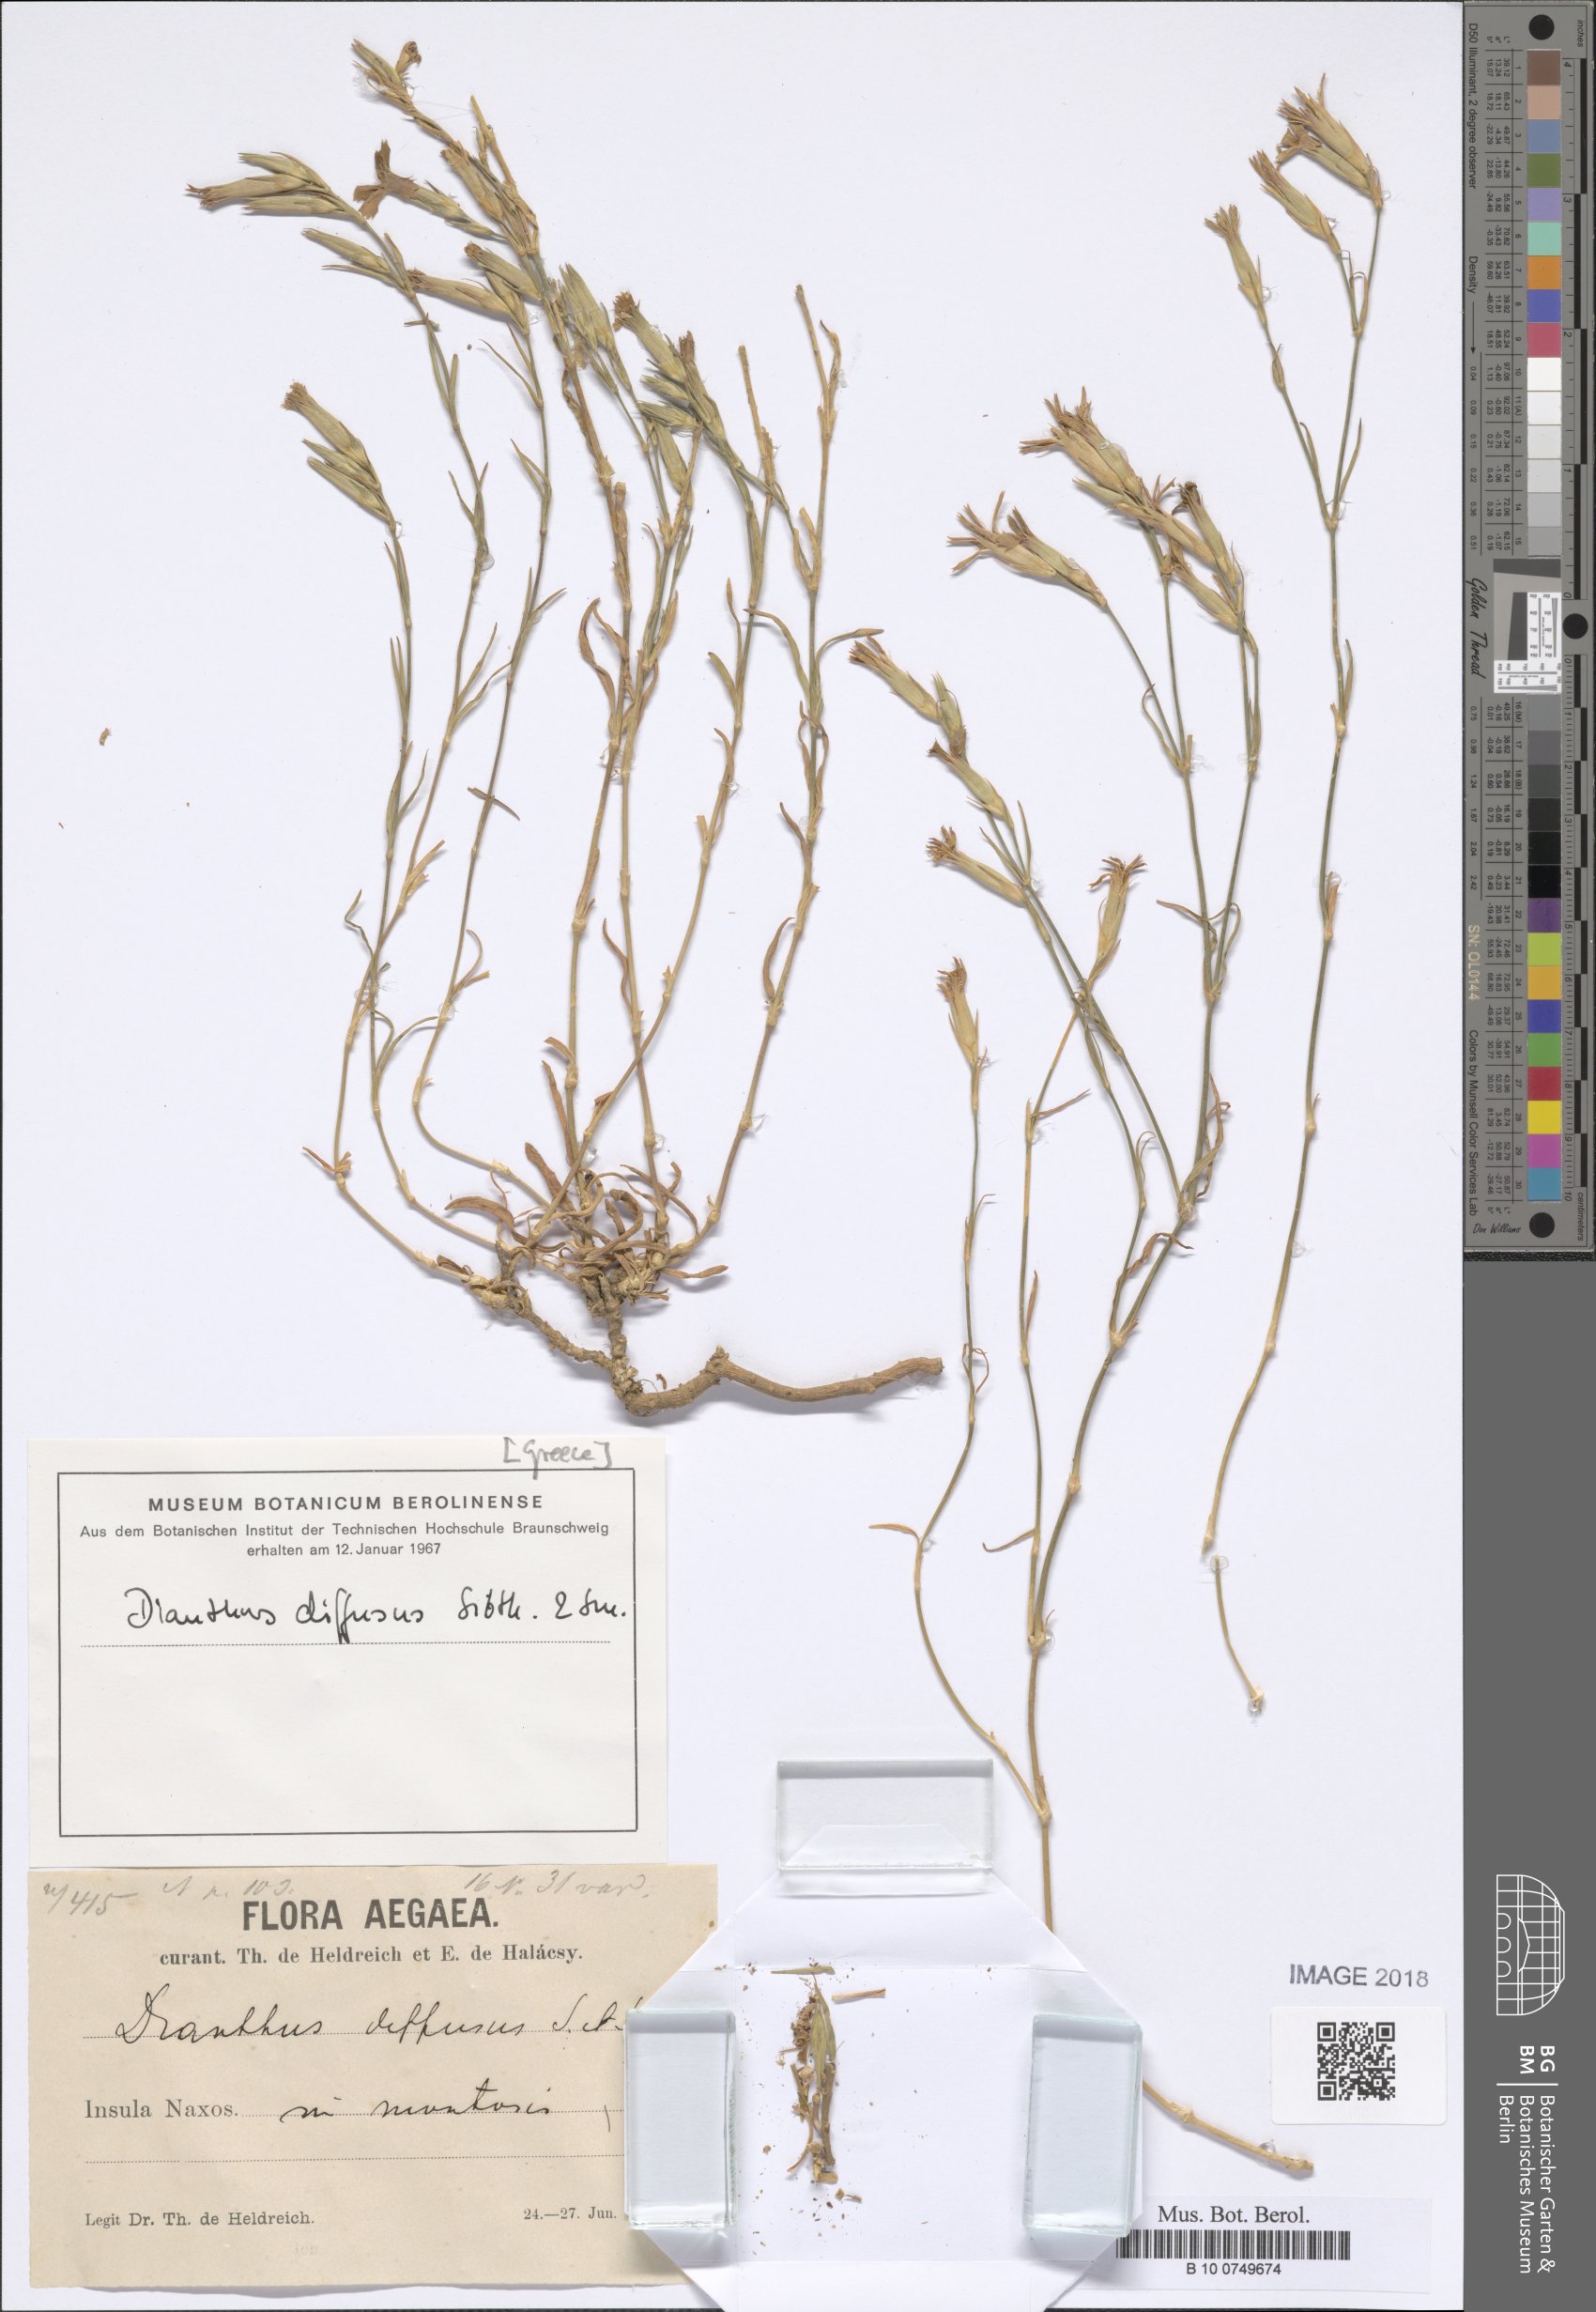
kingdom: Plantae
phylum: Tracheophyta
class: Magnoliopsida
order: Caryophyllales
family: Caryophyllaceae
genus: Dianthus
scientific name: Dianthus diffusus
